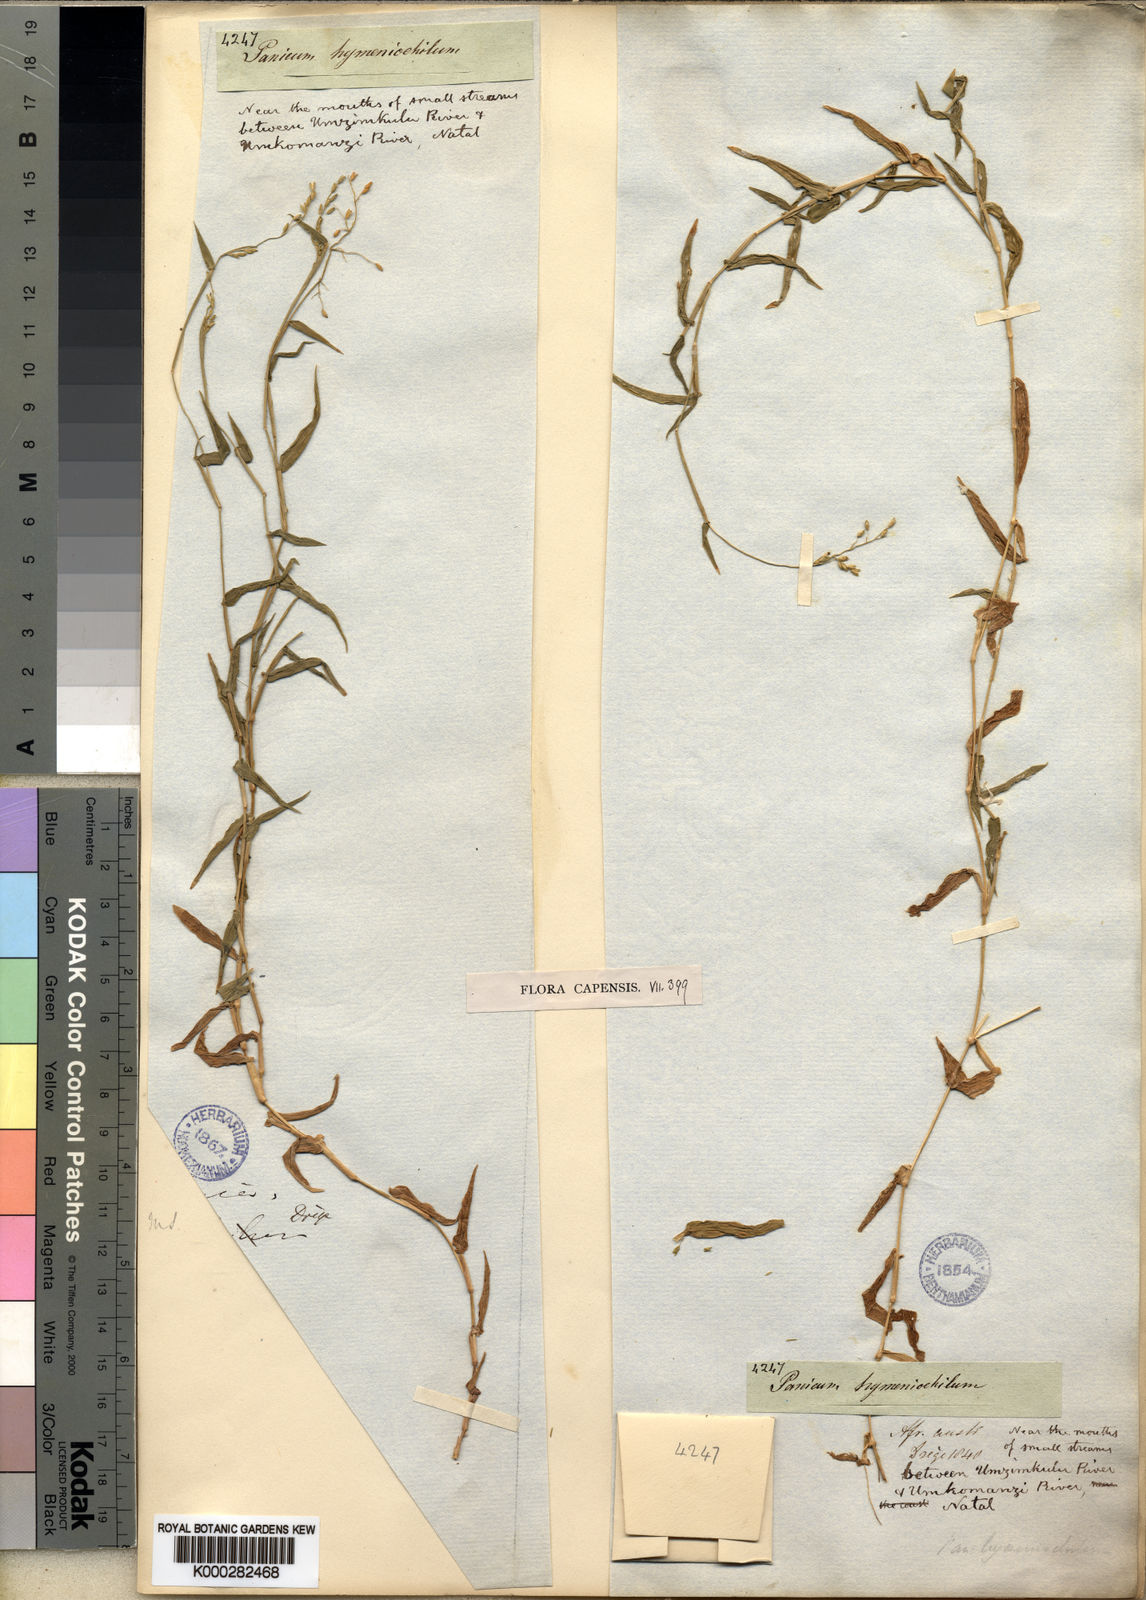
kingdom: Plantae
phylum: Tracheophyta
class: Liliopsida
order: Poales
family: Poaceae
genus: Adenochloa
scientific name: Adenochloa hymeniochila
